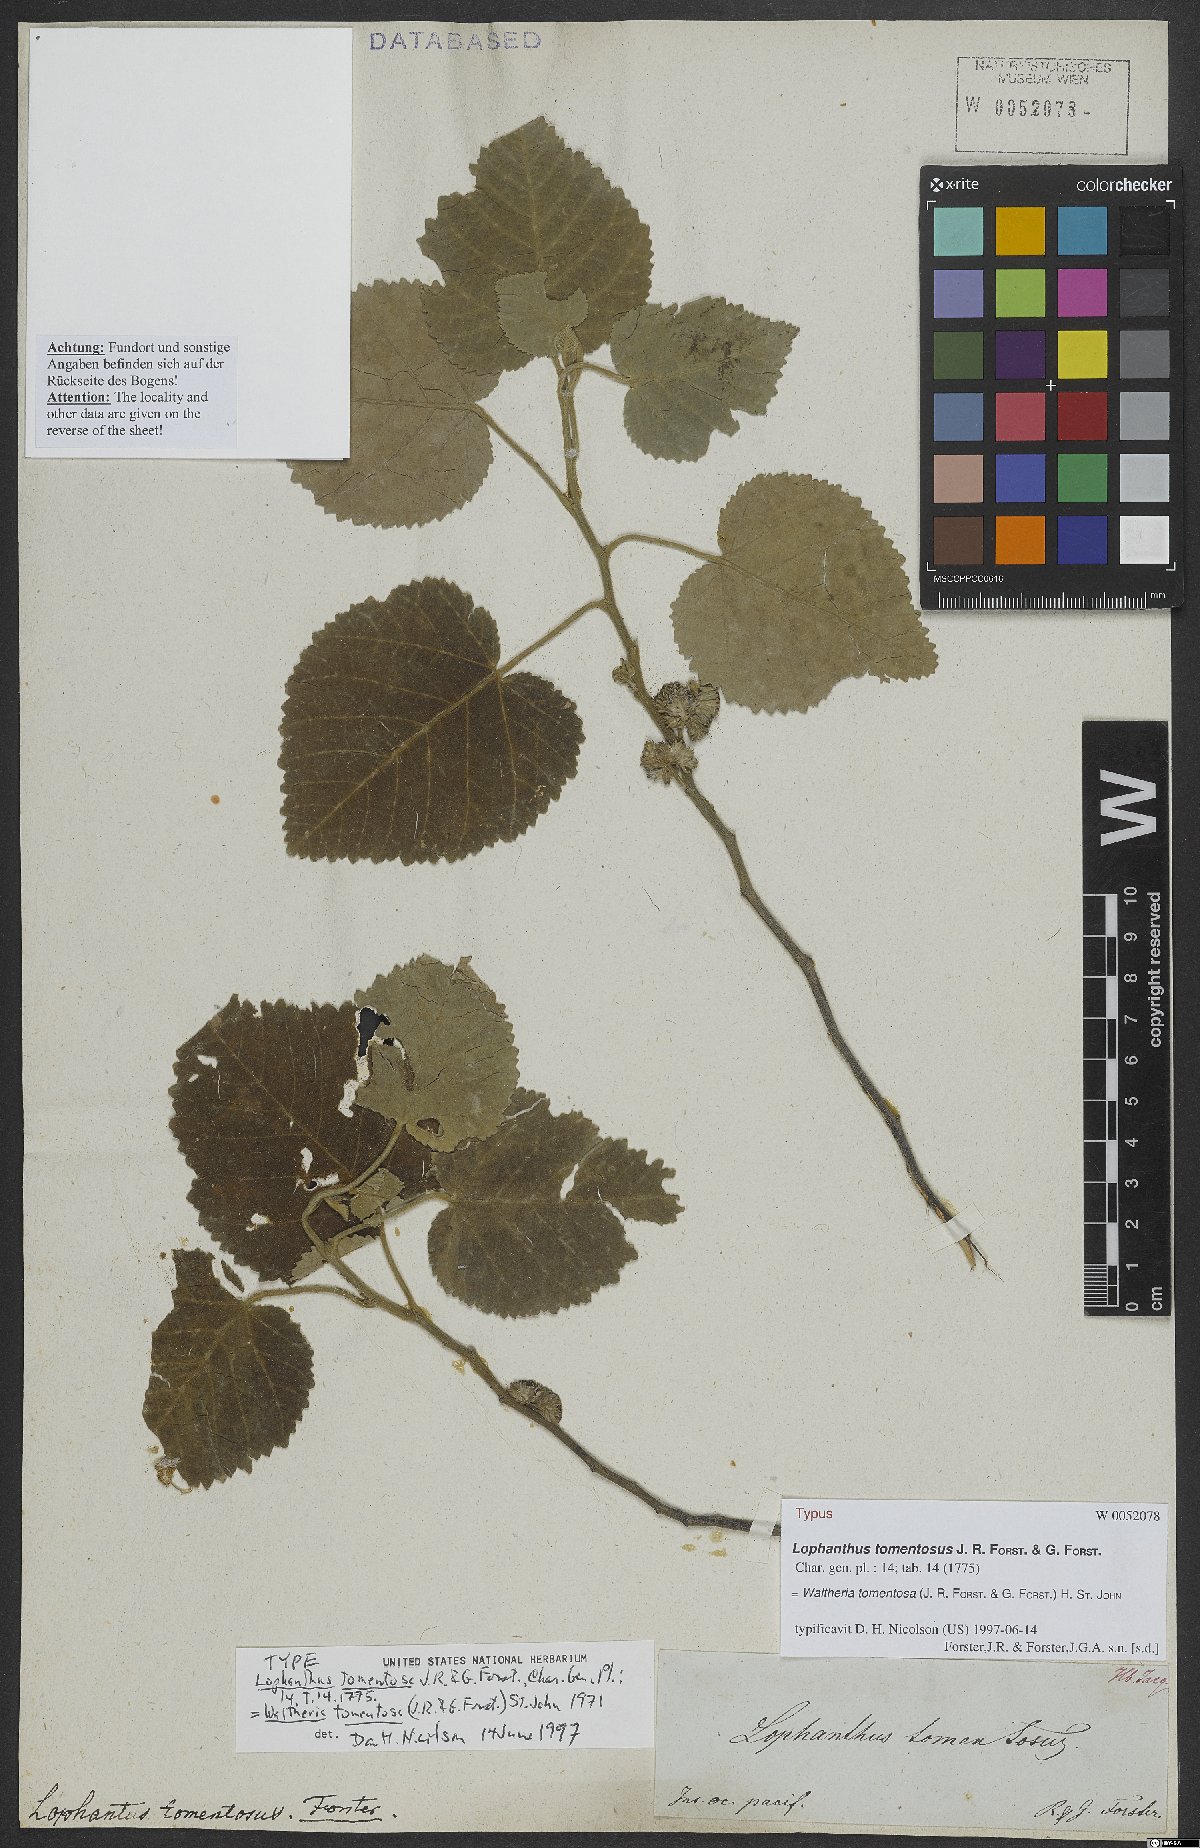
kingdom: Plantae
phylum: Tracheophyta
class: Magnoliopsida
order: Malvales
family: Malvaceae
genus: Waltheria
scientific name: Waltheria tomentosa
